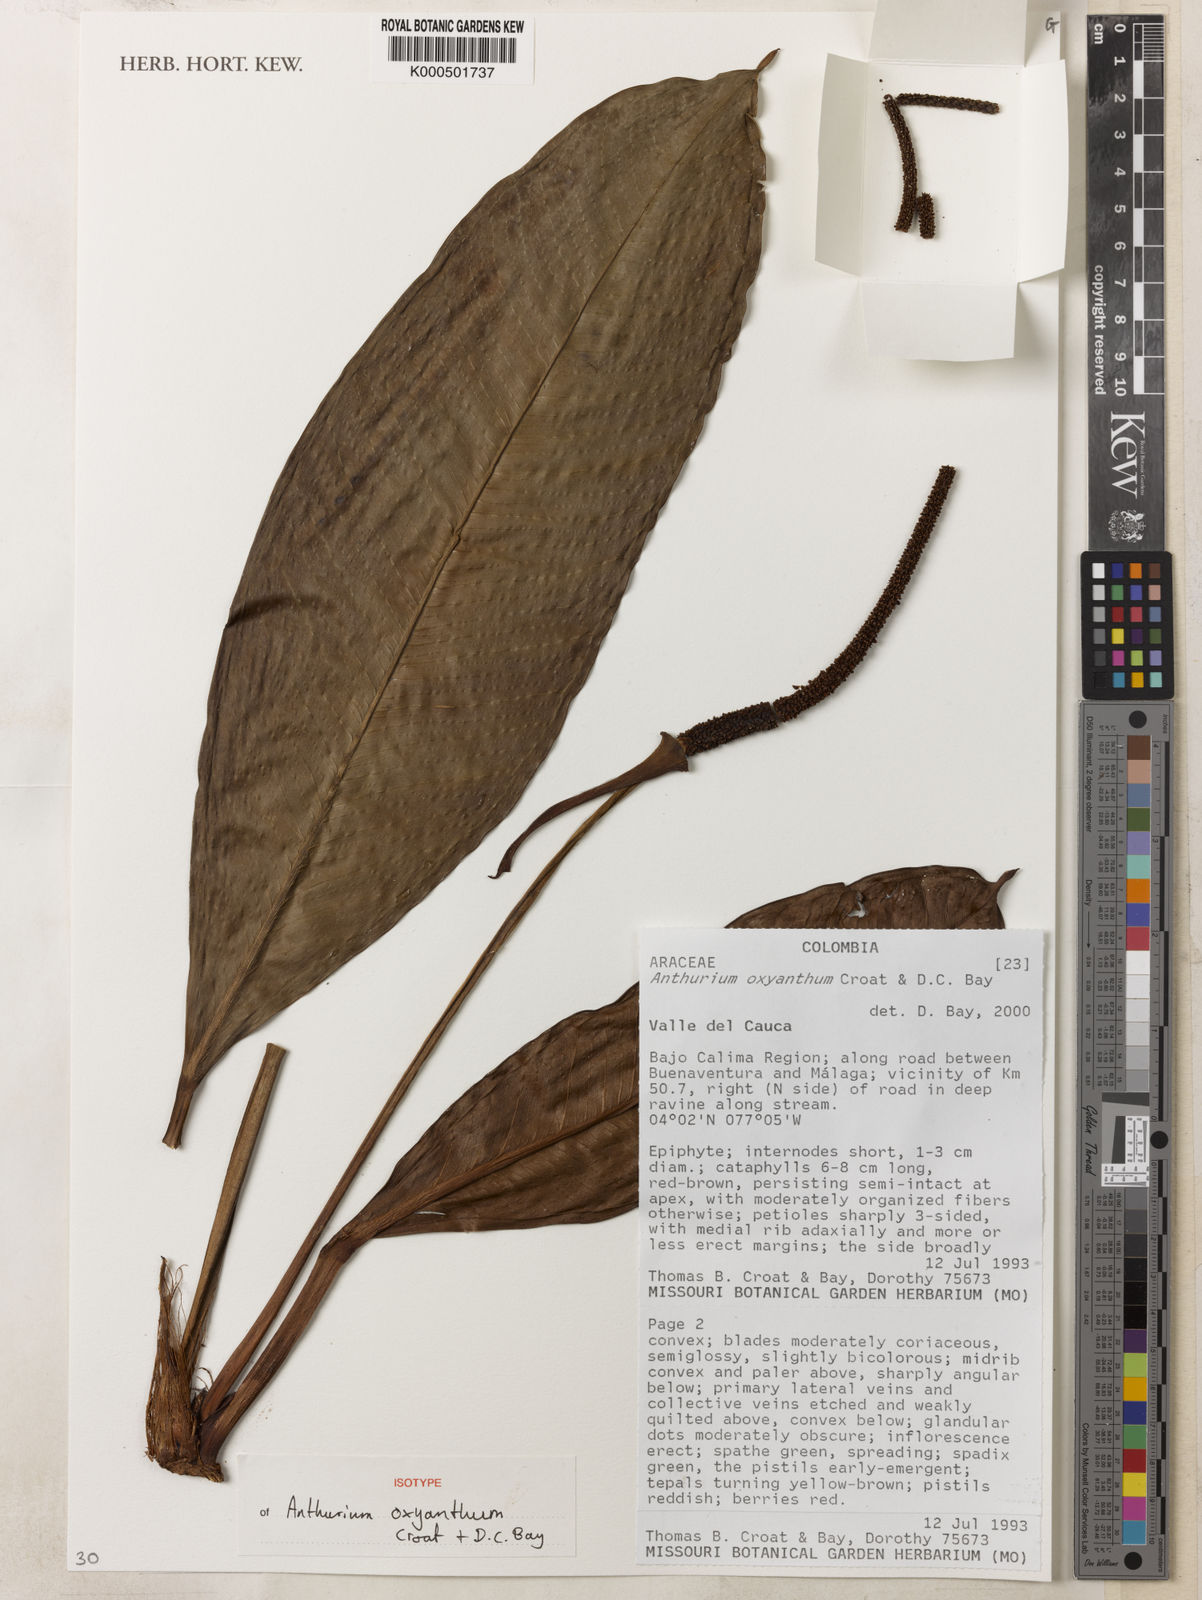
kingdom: Plantae
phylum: Tracheophyta
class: Liliopsida
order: Alismatales
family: Araceae
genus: Anthurium
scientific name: Anthurium oxyanthum
